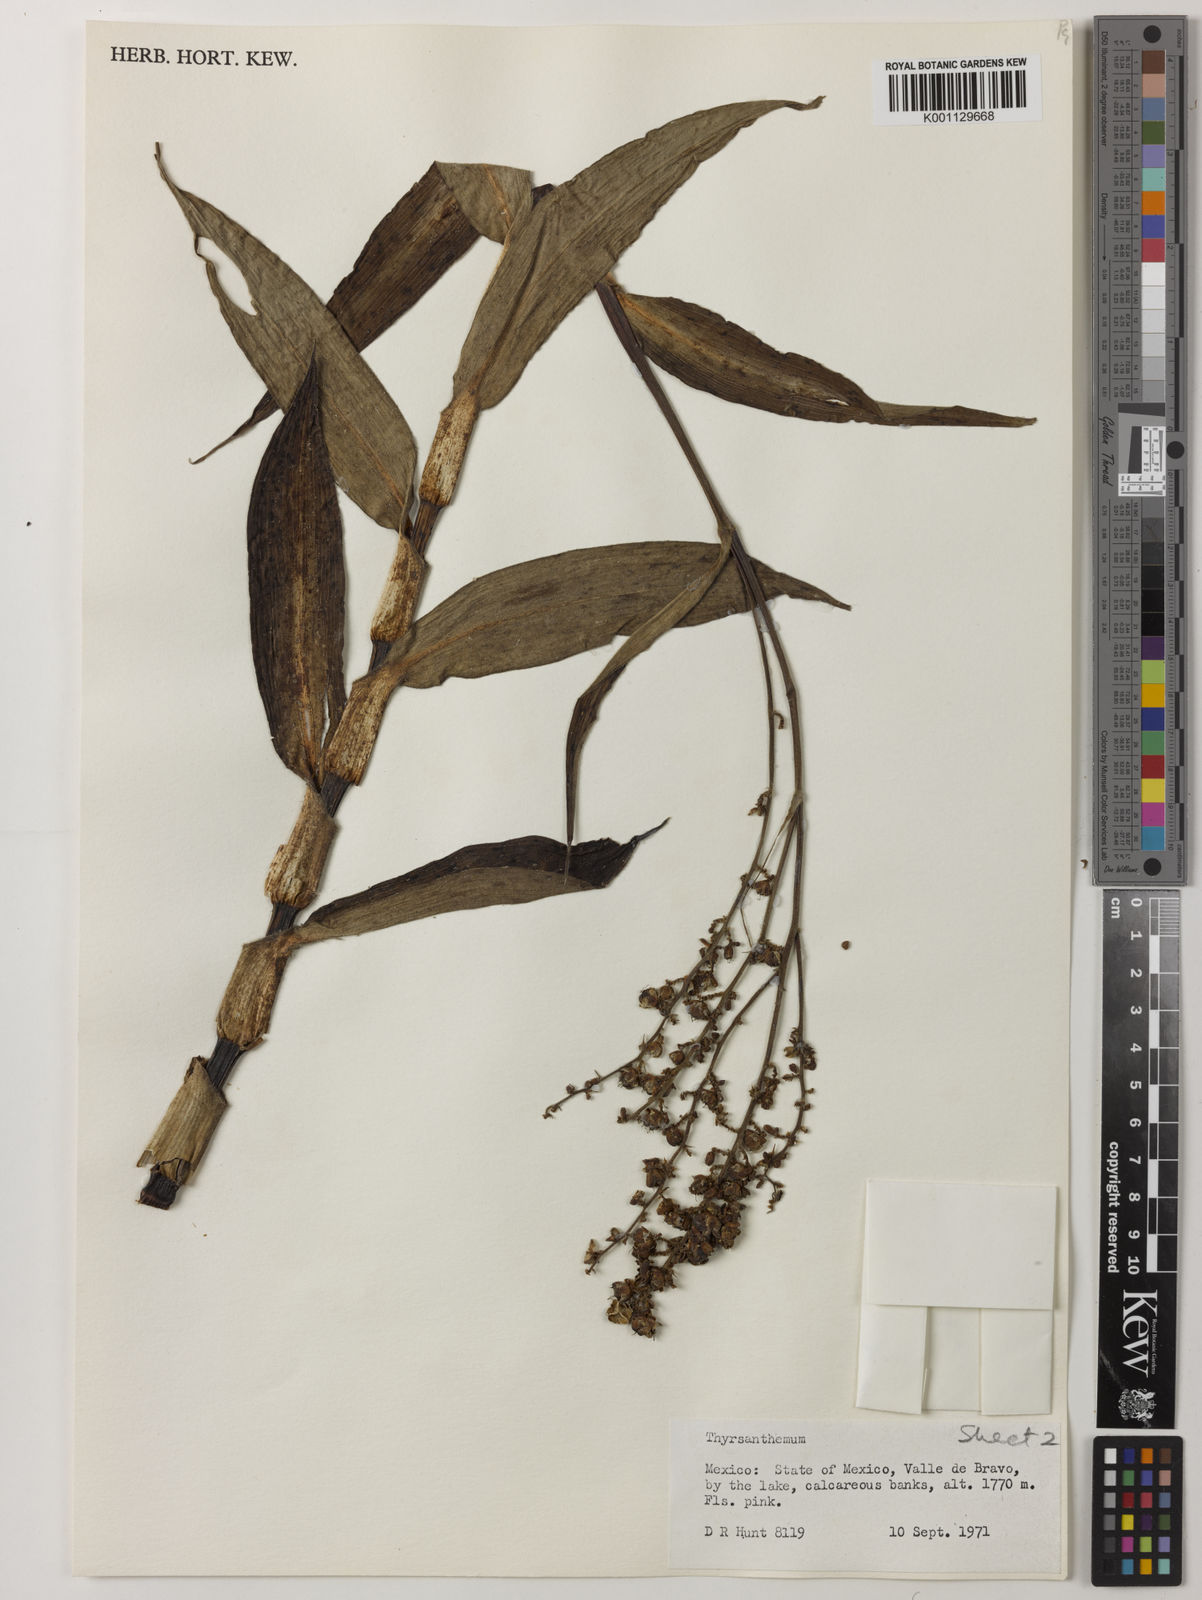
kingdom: Plantae
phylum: Tracheophyta
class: Liliopsida
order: Commelinales
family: Commelinaceae
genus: Thyrsanthemum
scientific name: Thyrsanthemum longifolium
